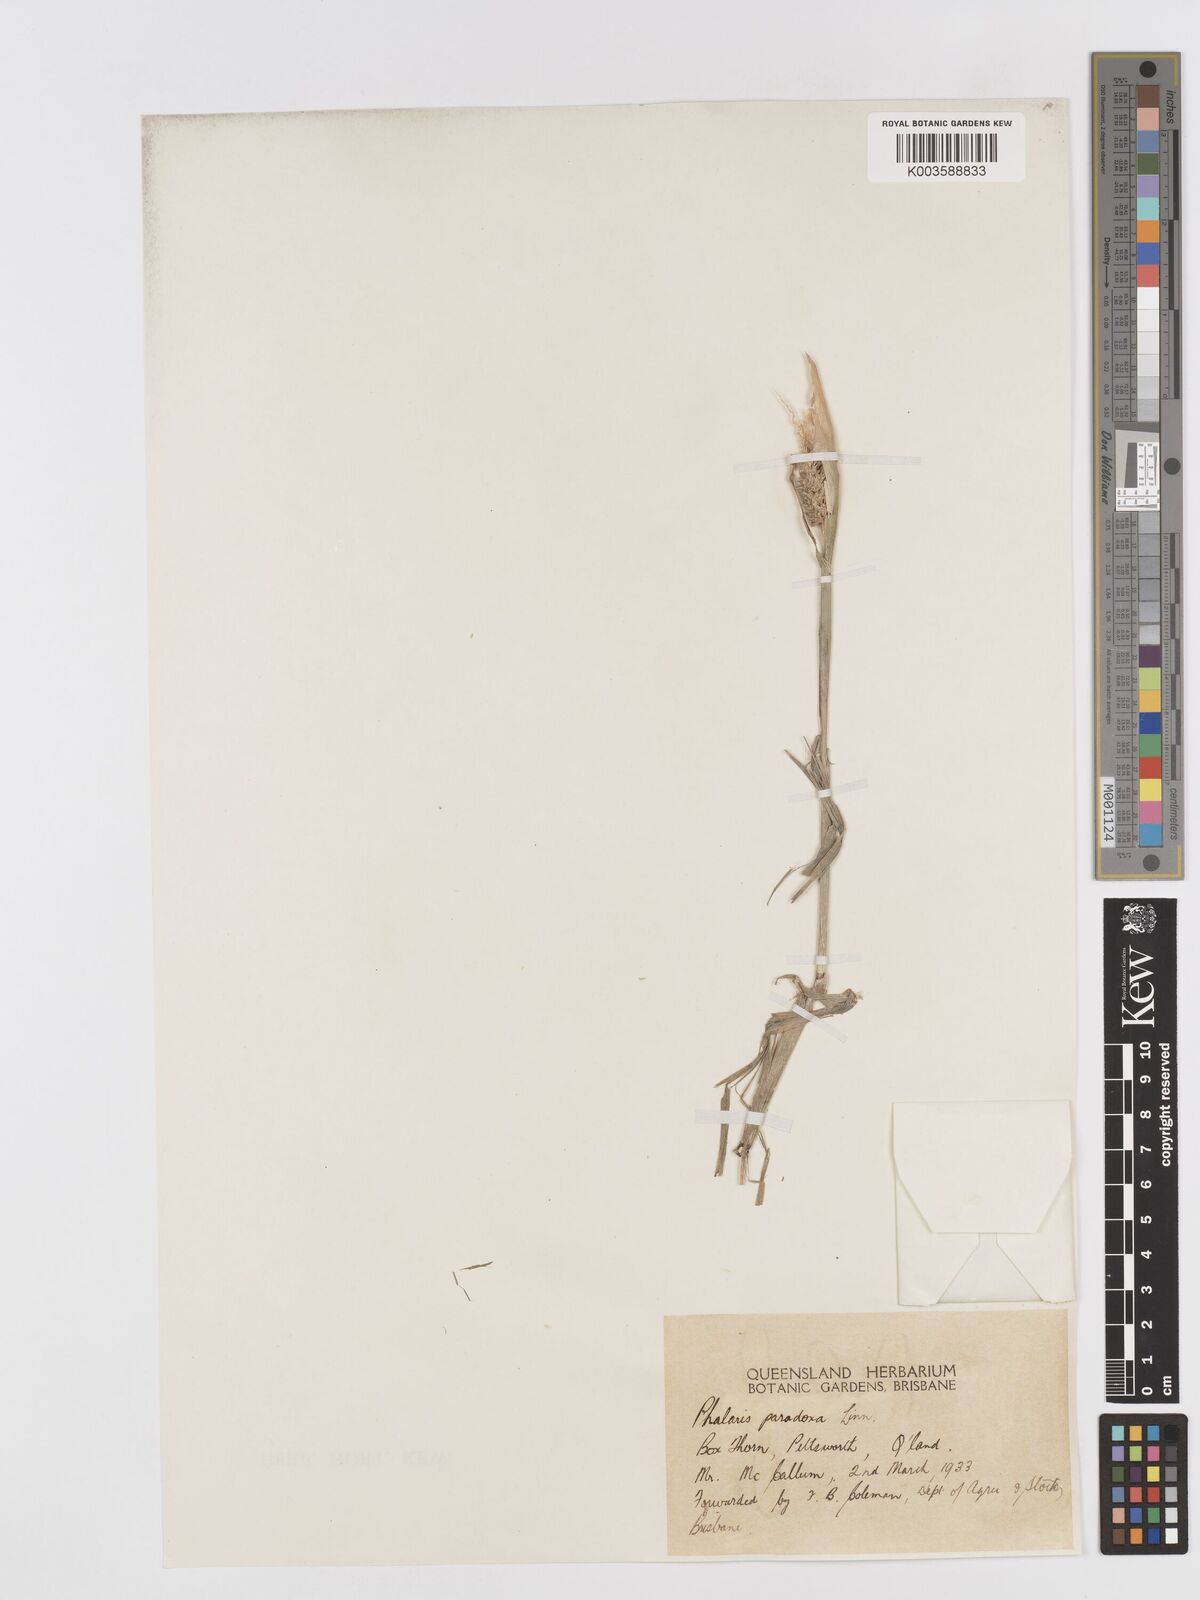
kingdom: Plantae
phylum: Tracheophyta
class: Liliopsida
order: Poales
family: Poaceae
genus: Phalaris
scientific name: Phalaris paradoxa
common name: Awned canary-grass
